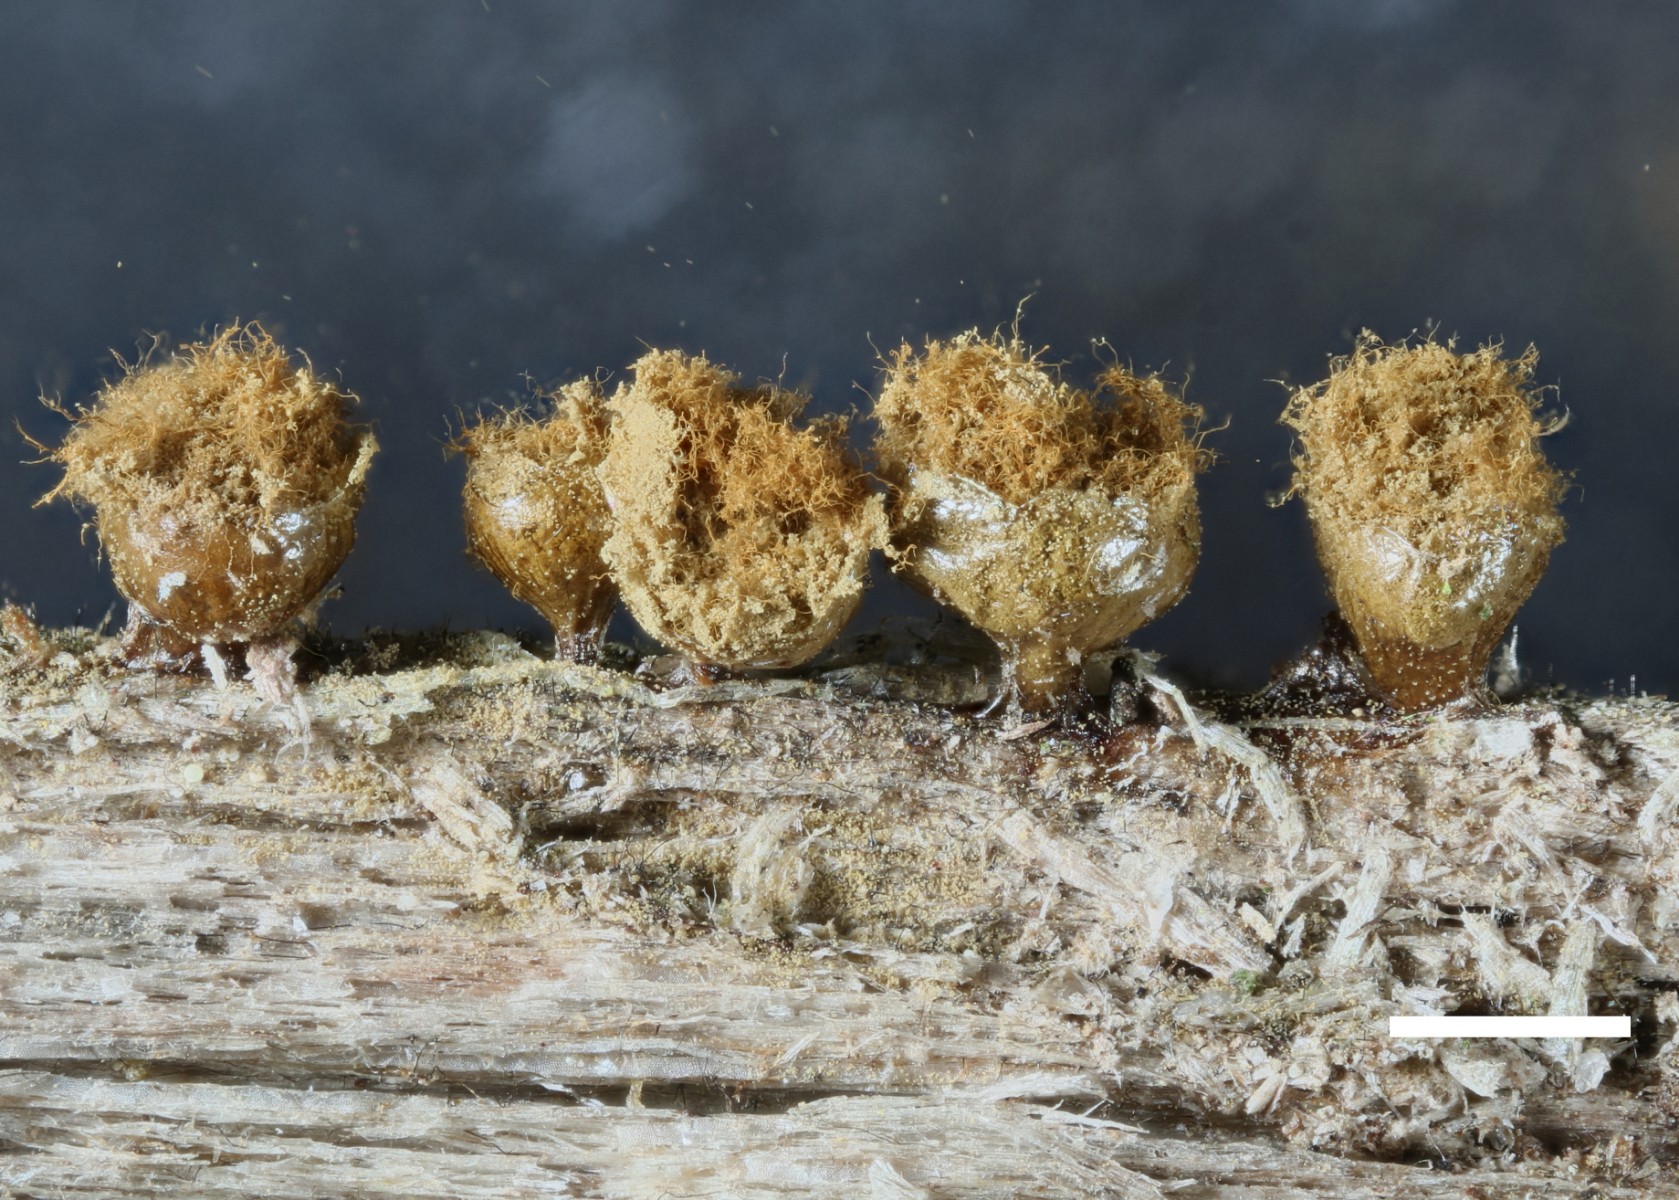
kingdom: Protozoa
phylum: Mycetozoa
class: Myxomycetes
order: Trichiales
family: Trichiaceae
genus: Trichia
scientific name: Trichia crateriformis
